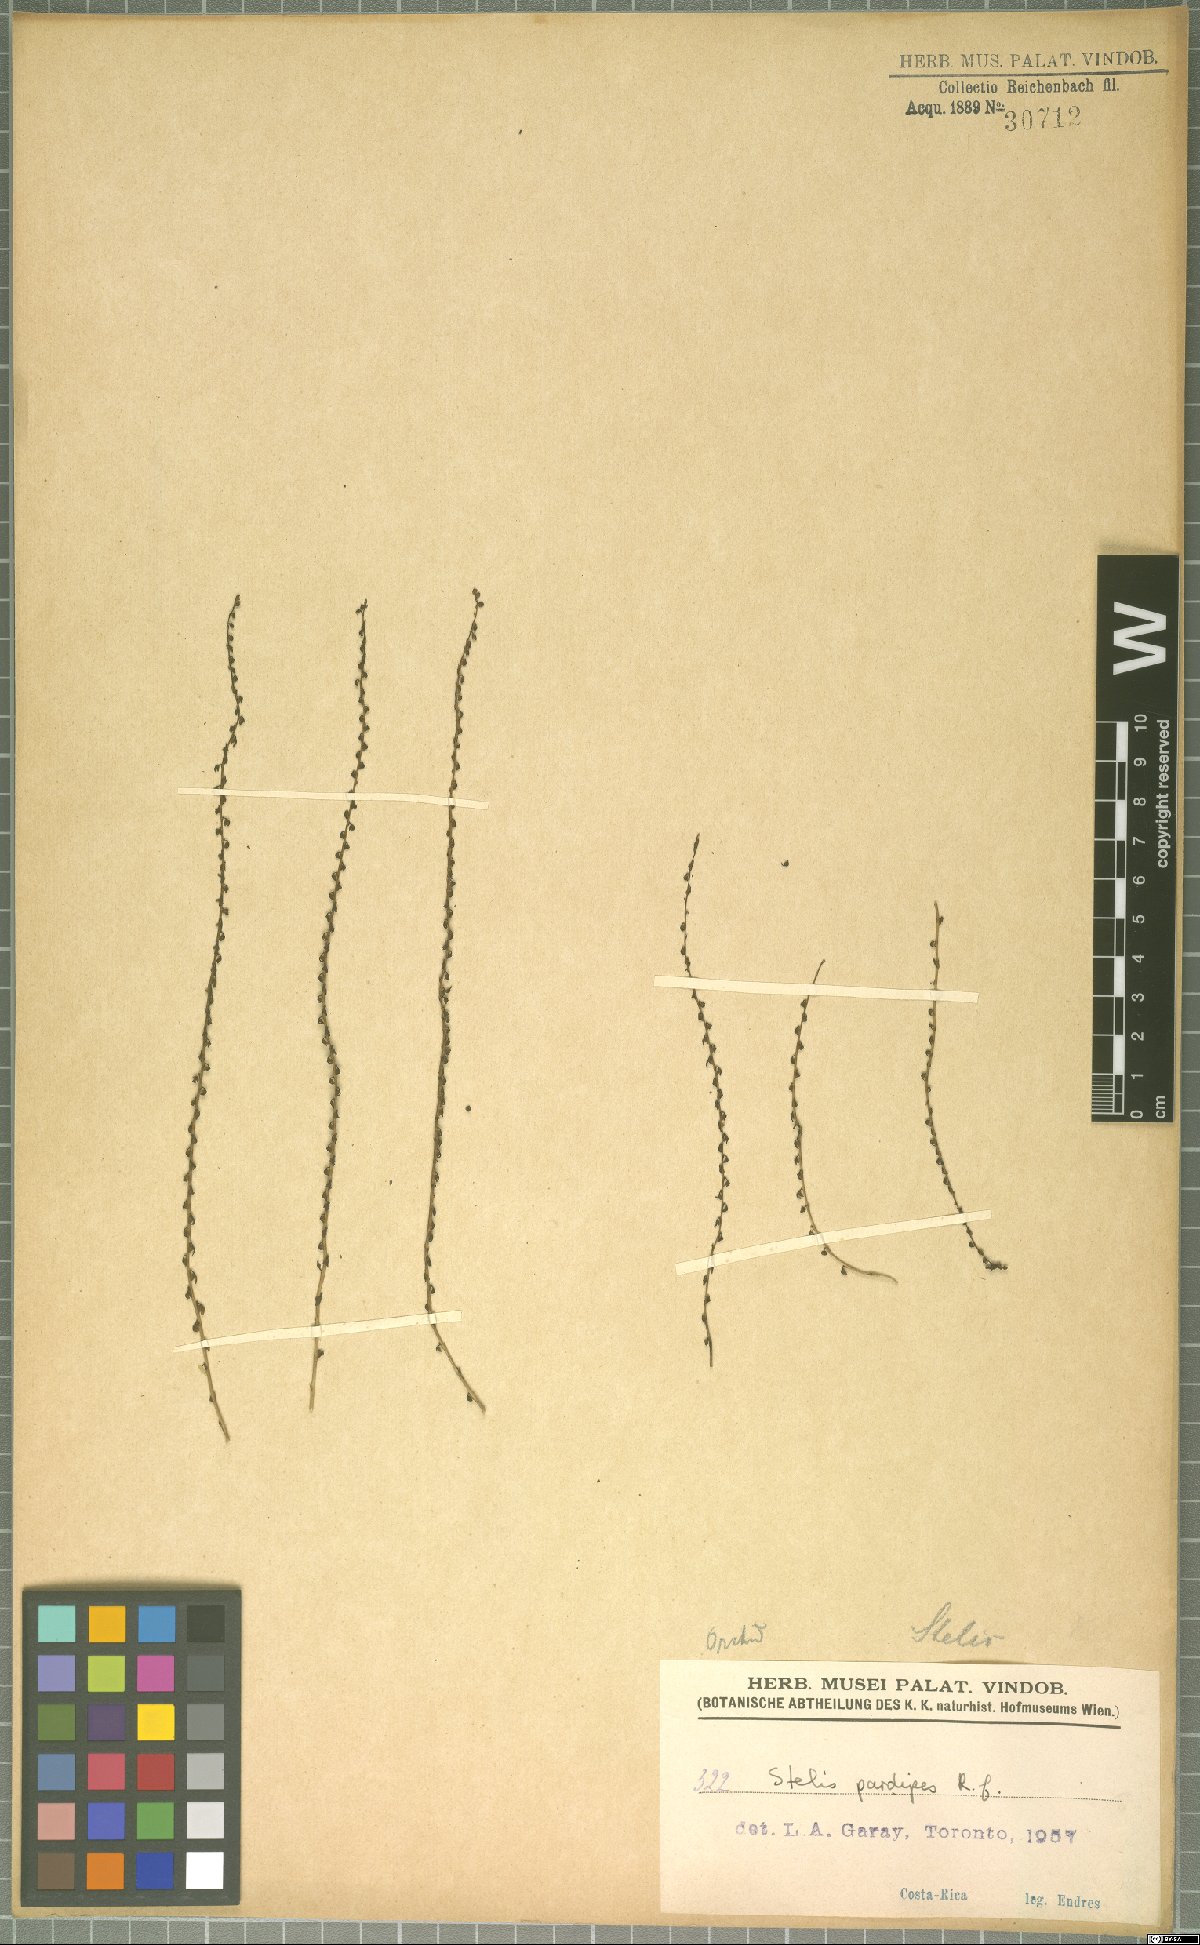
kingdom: Plantae
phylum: Tracheophyta
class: Liliopsida
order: Asparagales
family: Orchidaceae
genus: Stelis
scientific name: Stelis pardipes
